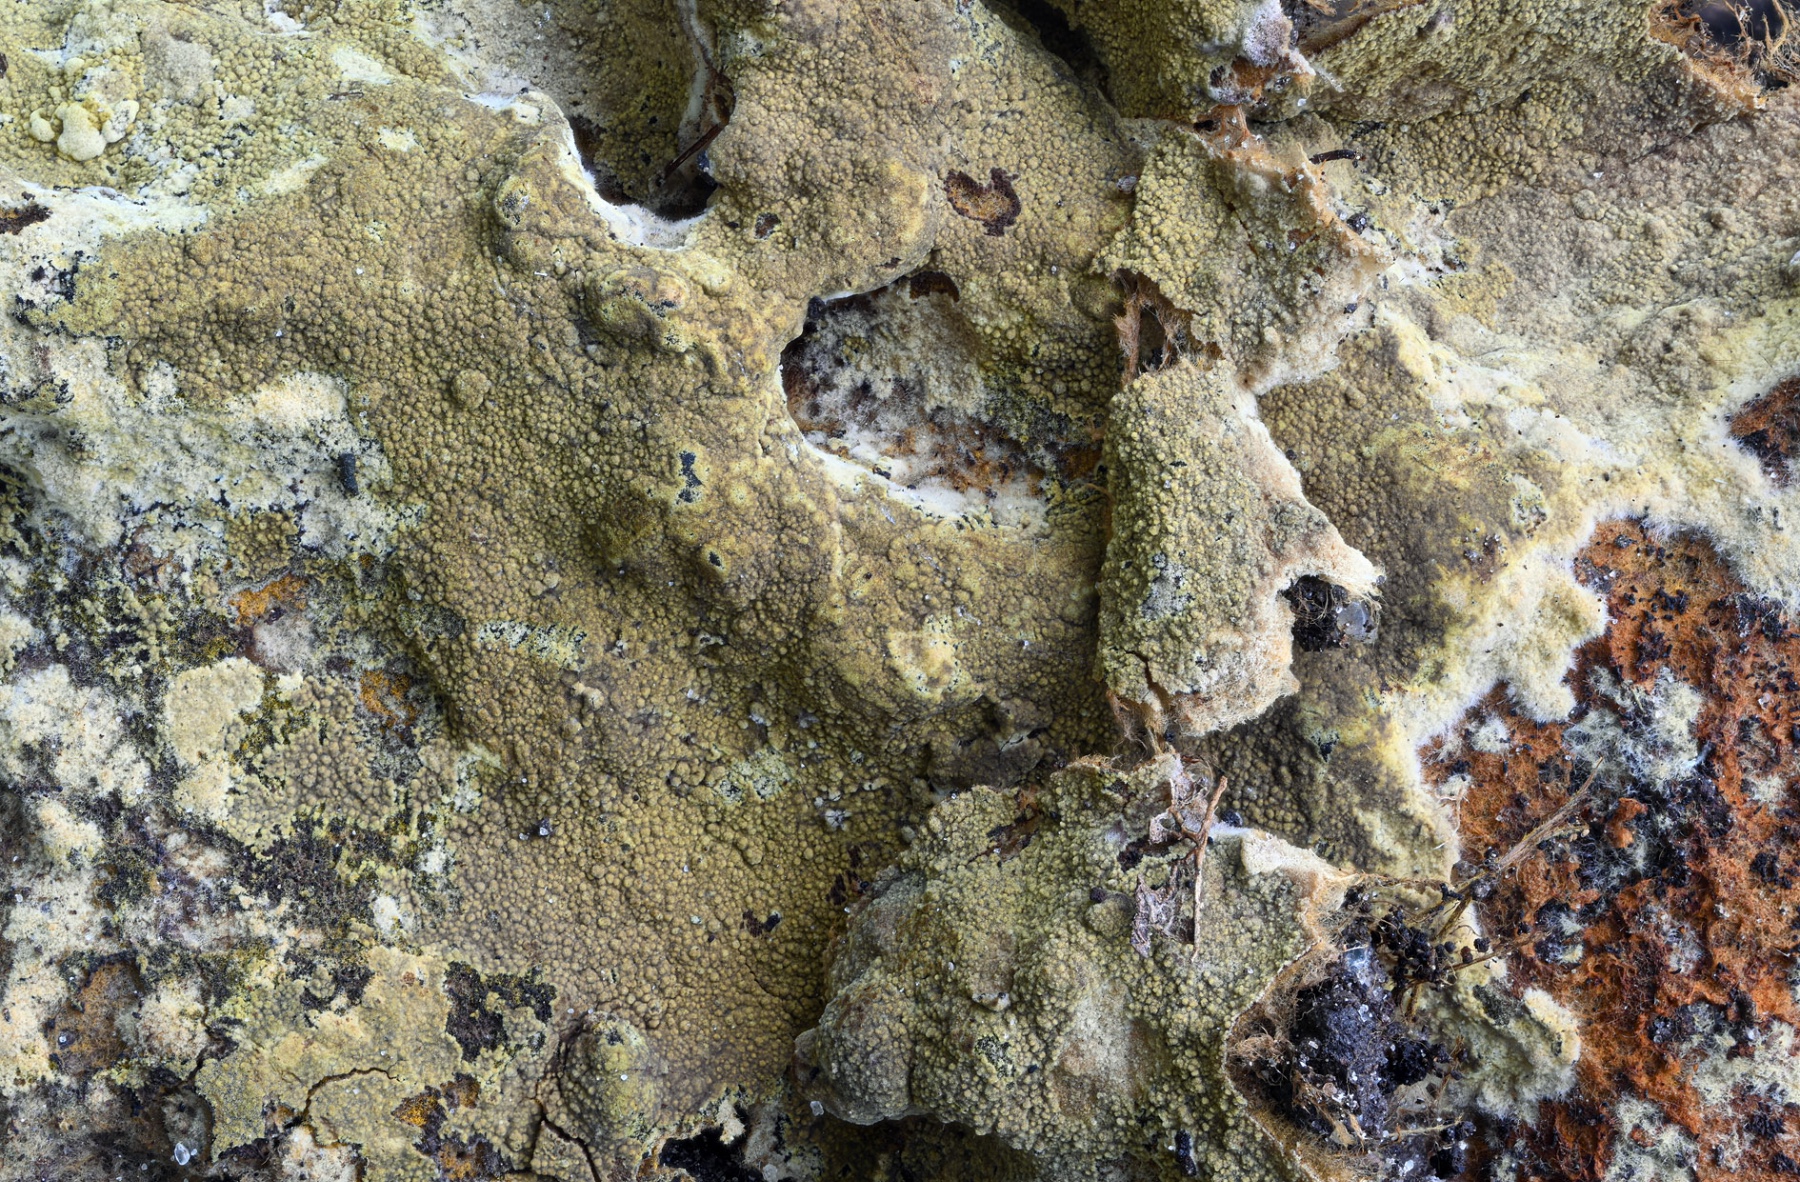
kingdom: Fungi
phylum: Basidiomycota
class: Agaricomycetes
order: Thelephorales
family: Thelephoraceae
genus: Tomentella
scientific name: Tomentella
